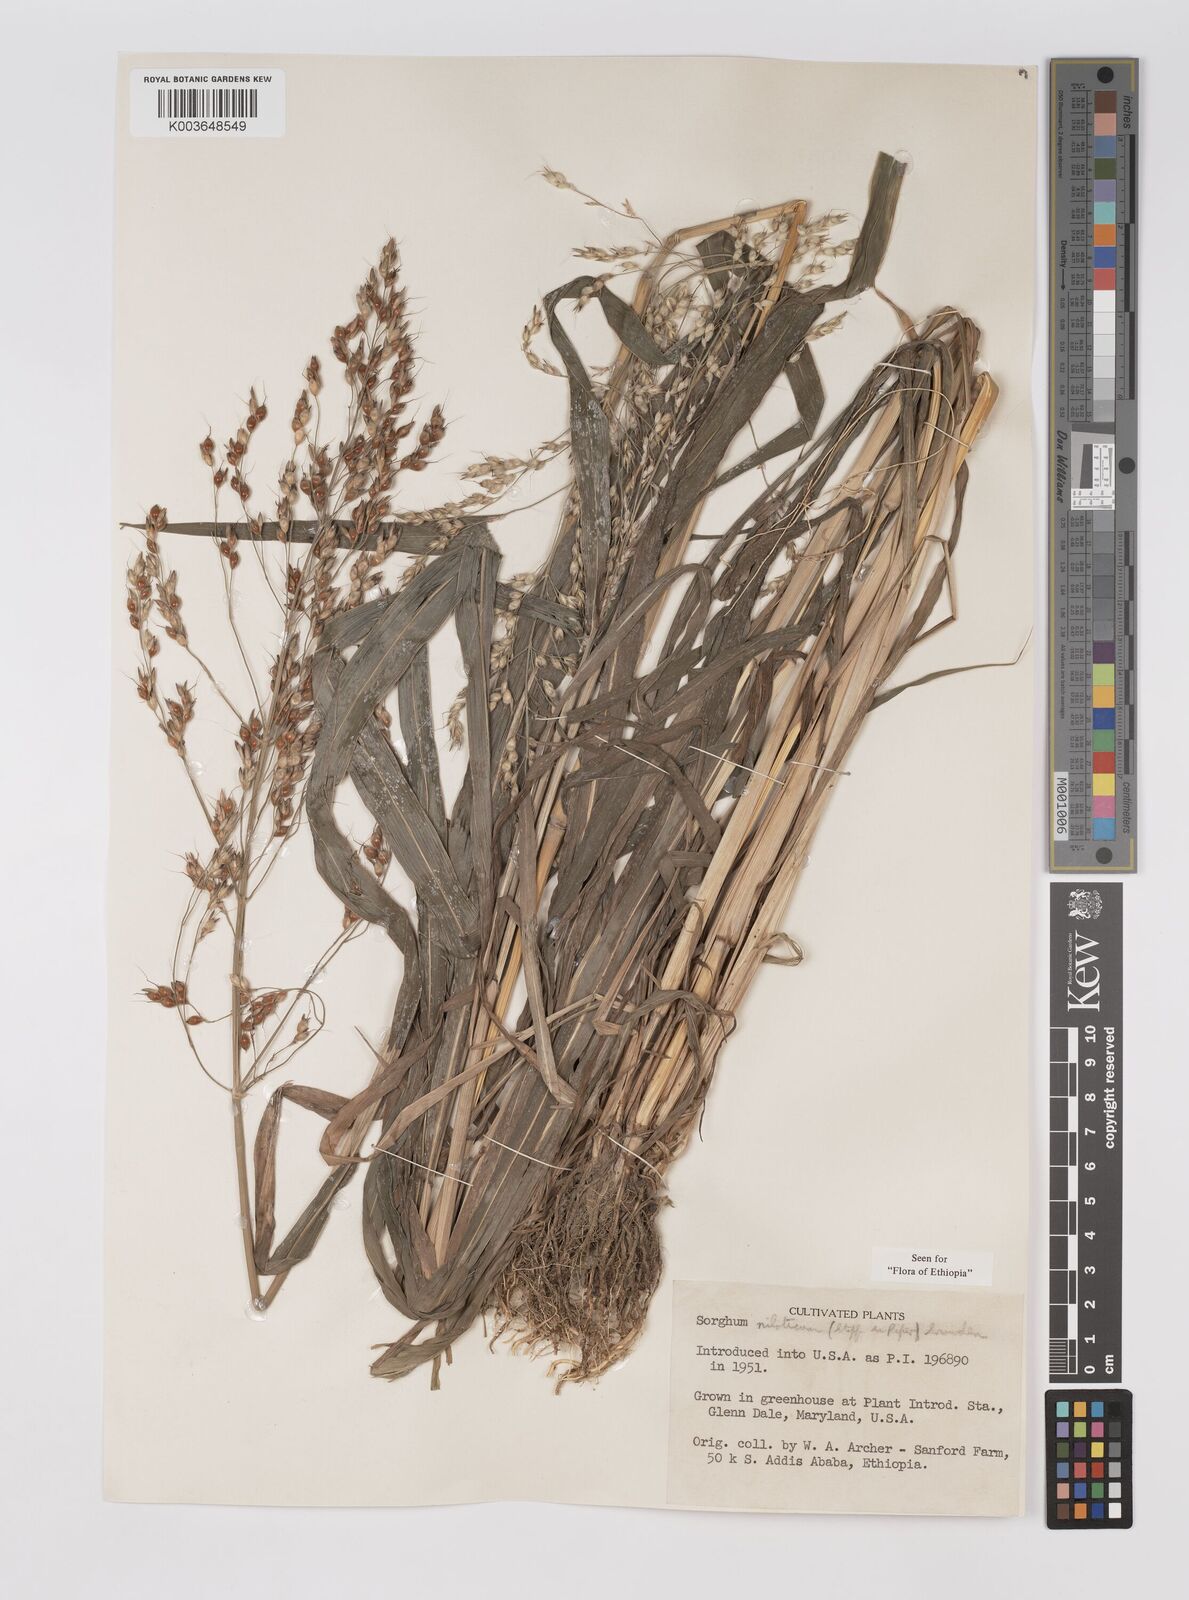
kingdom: Plantae
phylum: Tracheophyta
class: Liliopsida
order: Poales
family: Poaceae
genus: Sorghum
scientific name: Sorghum drummondii
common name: Sudangrass
